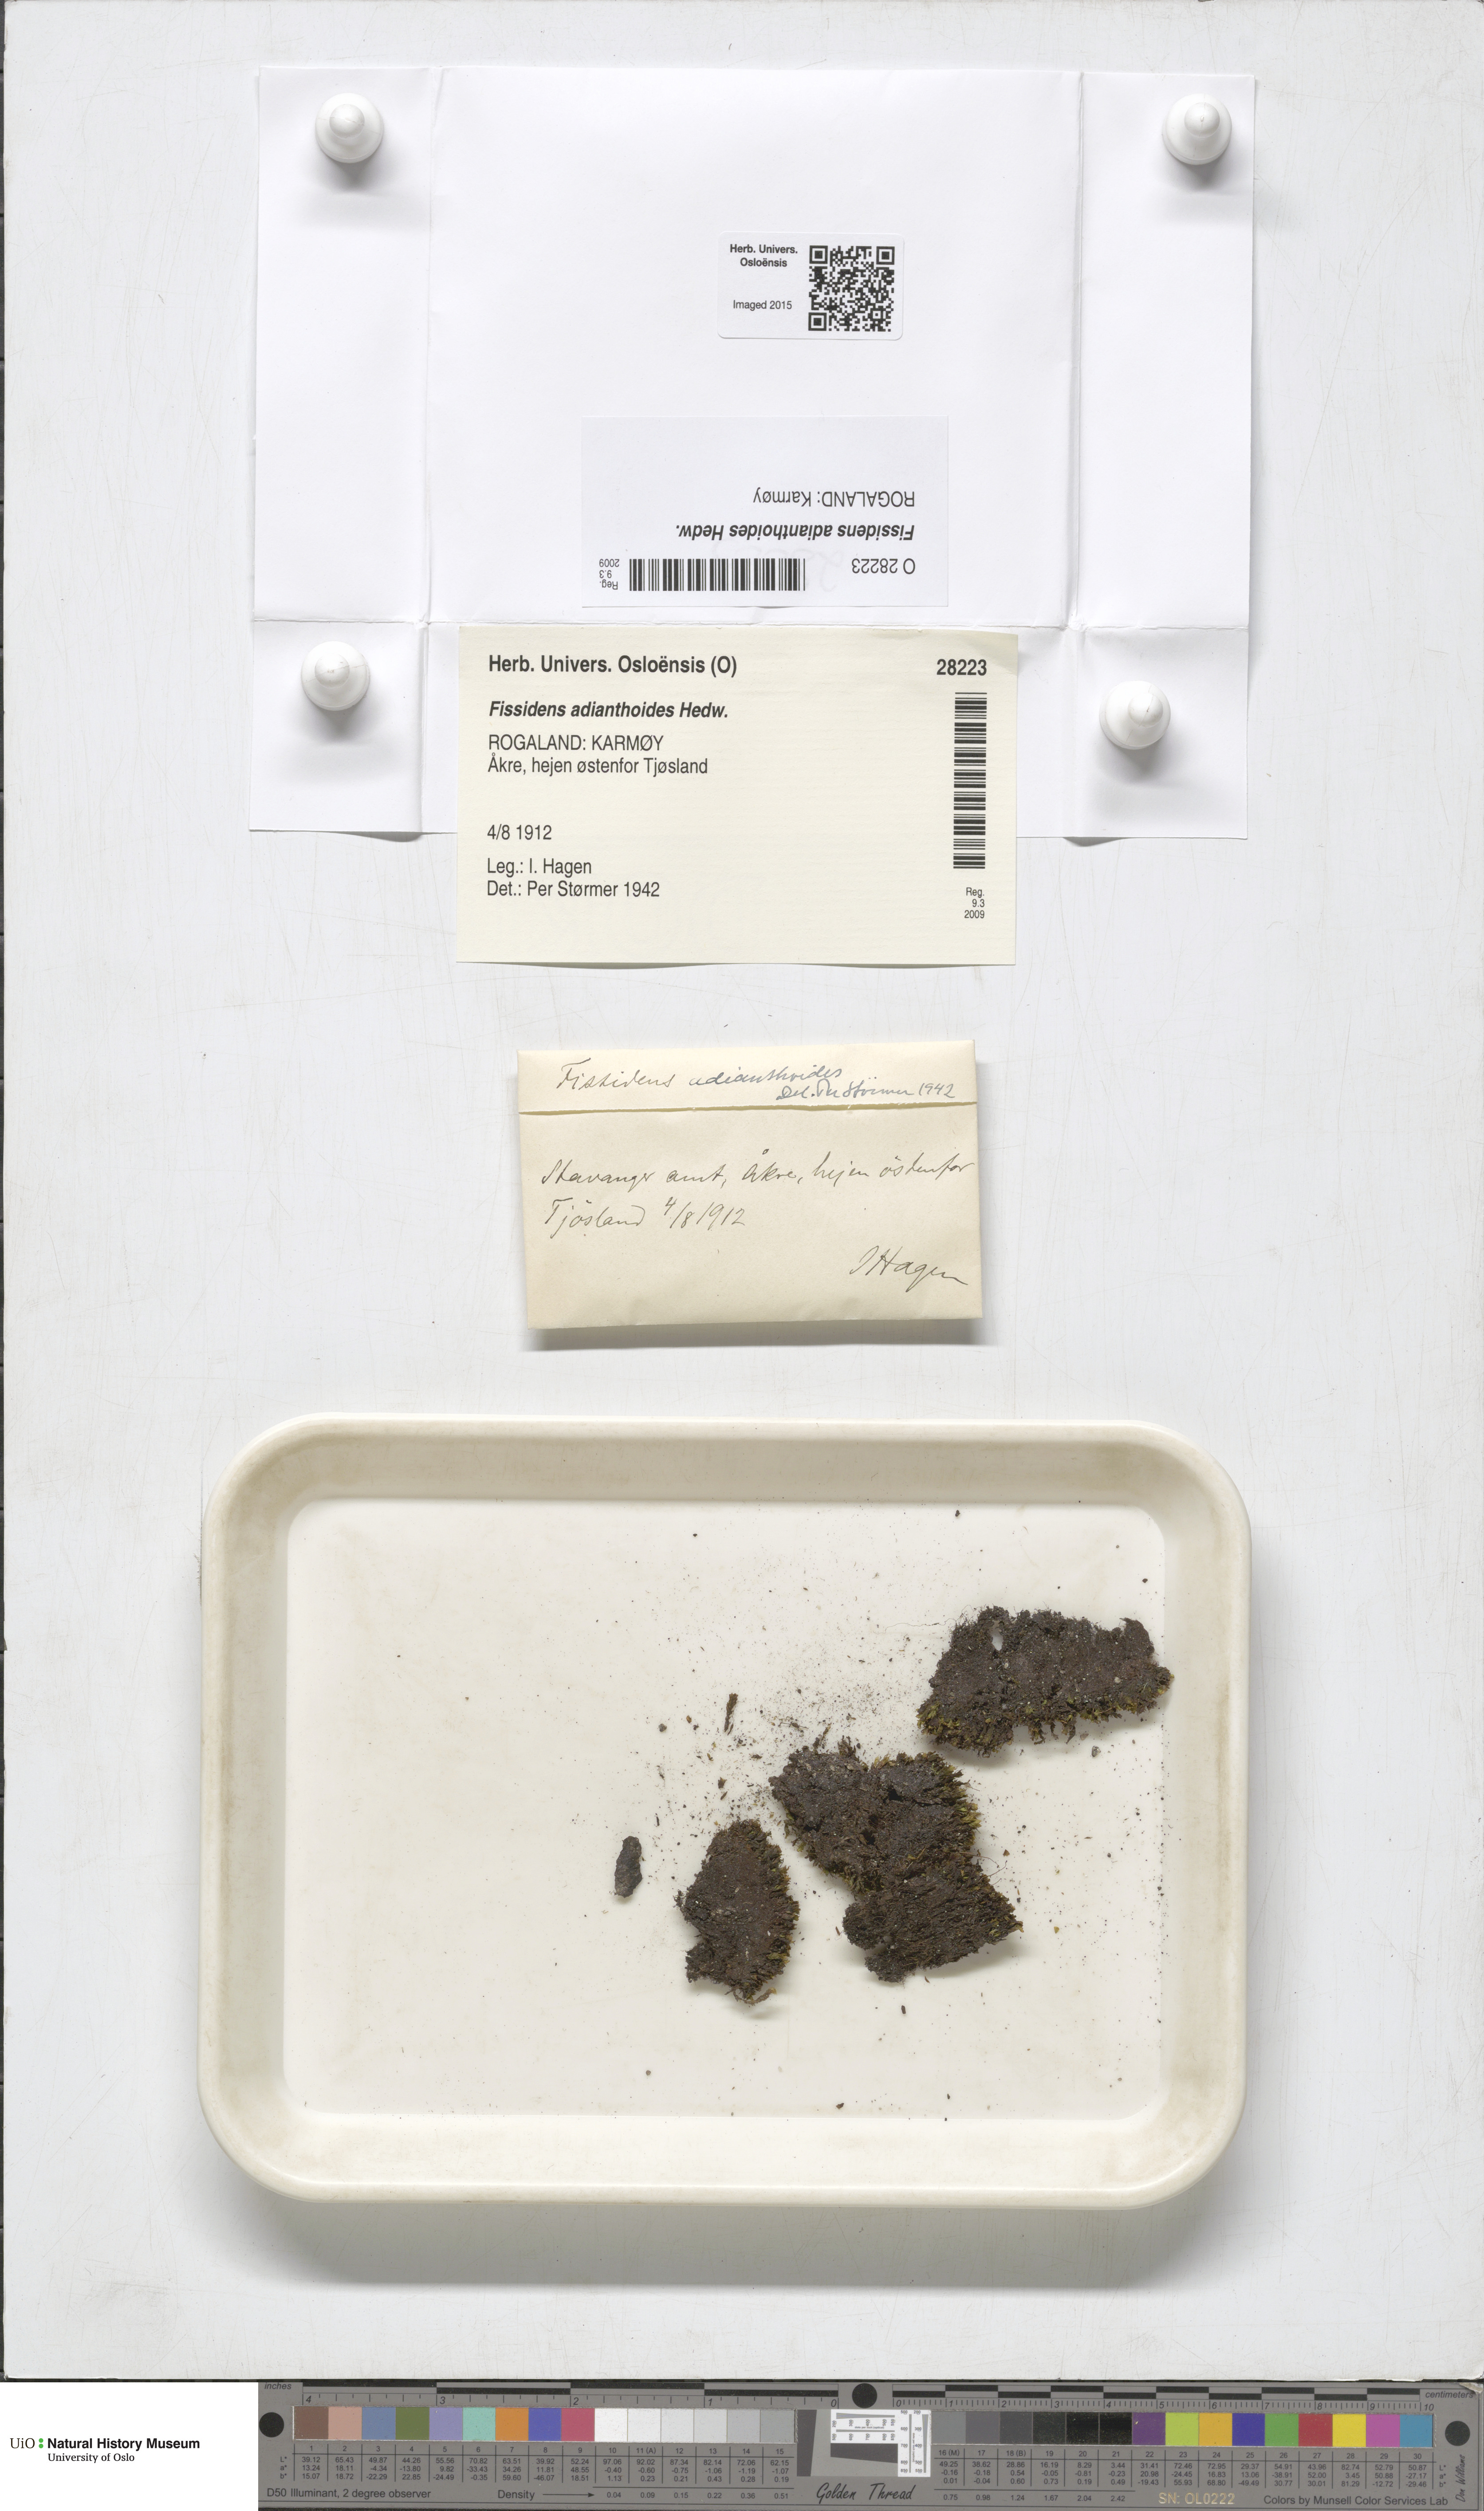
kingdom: Plantae
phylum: Bryophyta
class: Bryopsida
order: Dicranales
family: Fissidentaceae
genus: Fissidens
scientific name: Fissidens adianthoides
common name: Maidenhair pocket moss
